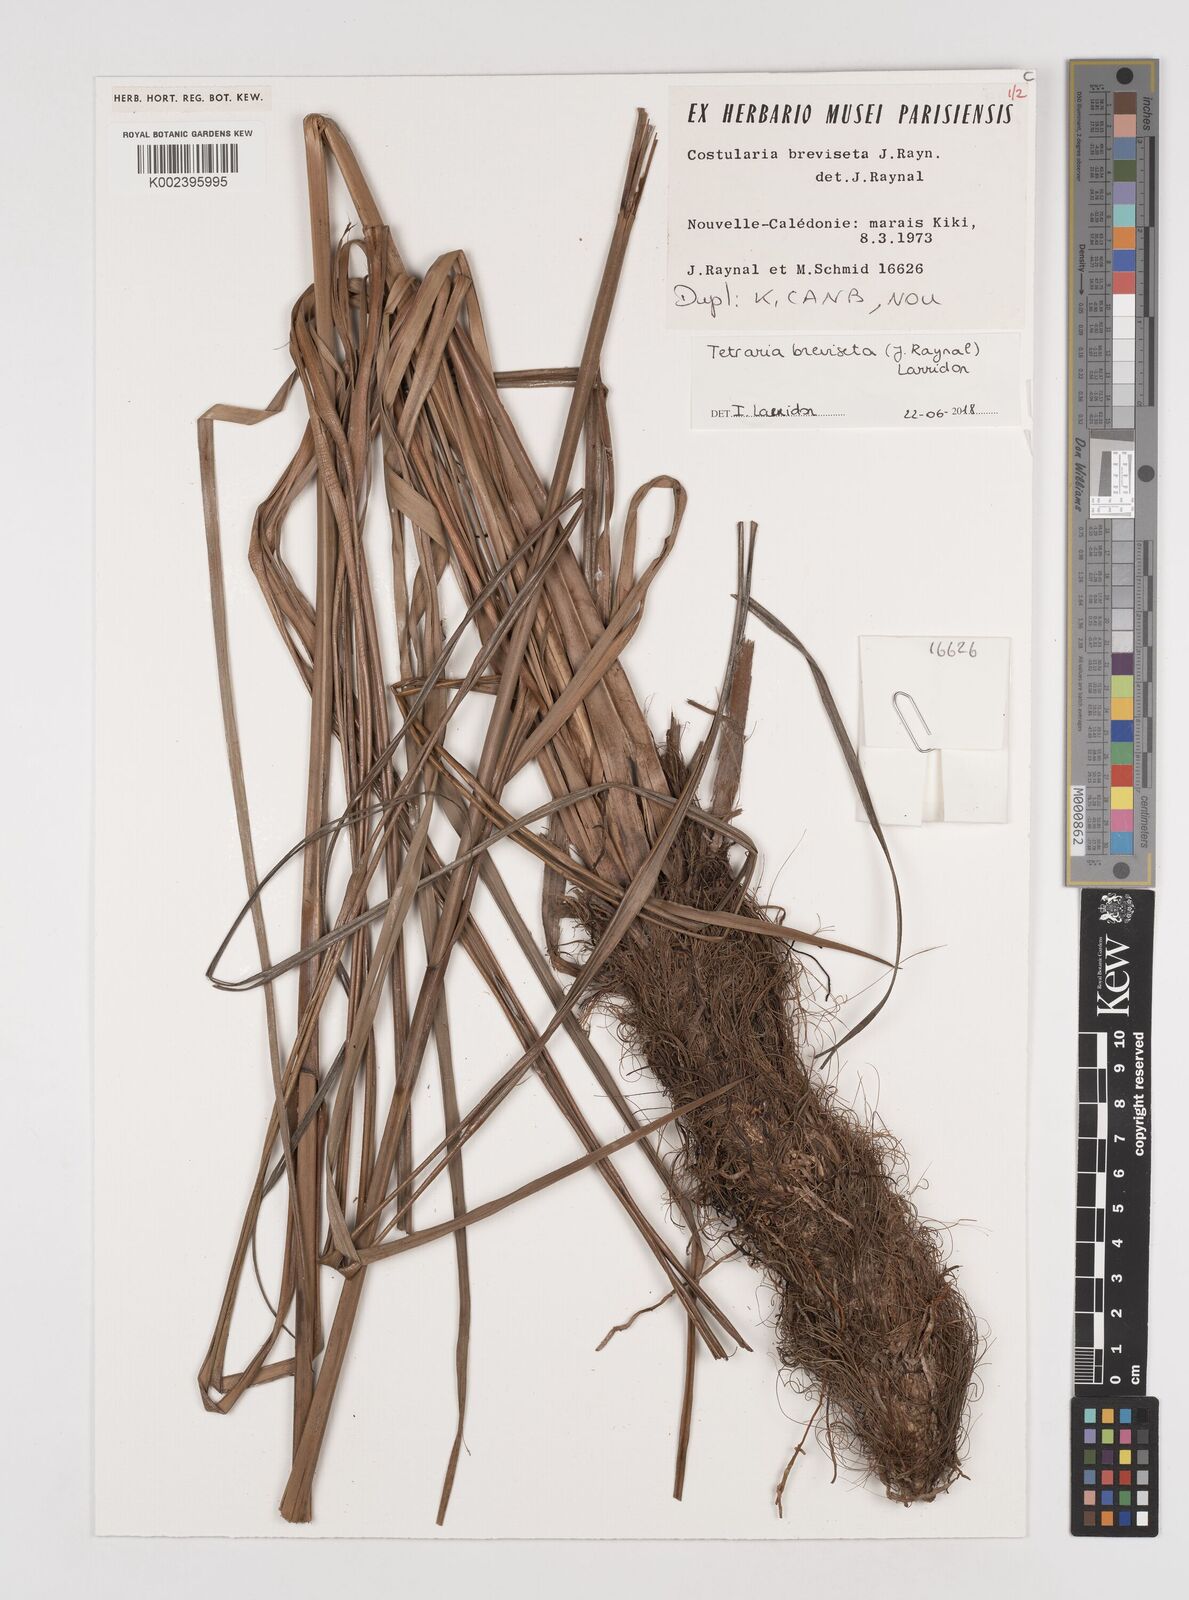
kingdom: Plantae
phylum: Tracheophyta
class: Liliopsida
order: Poales
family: Cyperaceae
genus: Tetraria
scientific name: Tetraria breviseta
